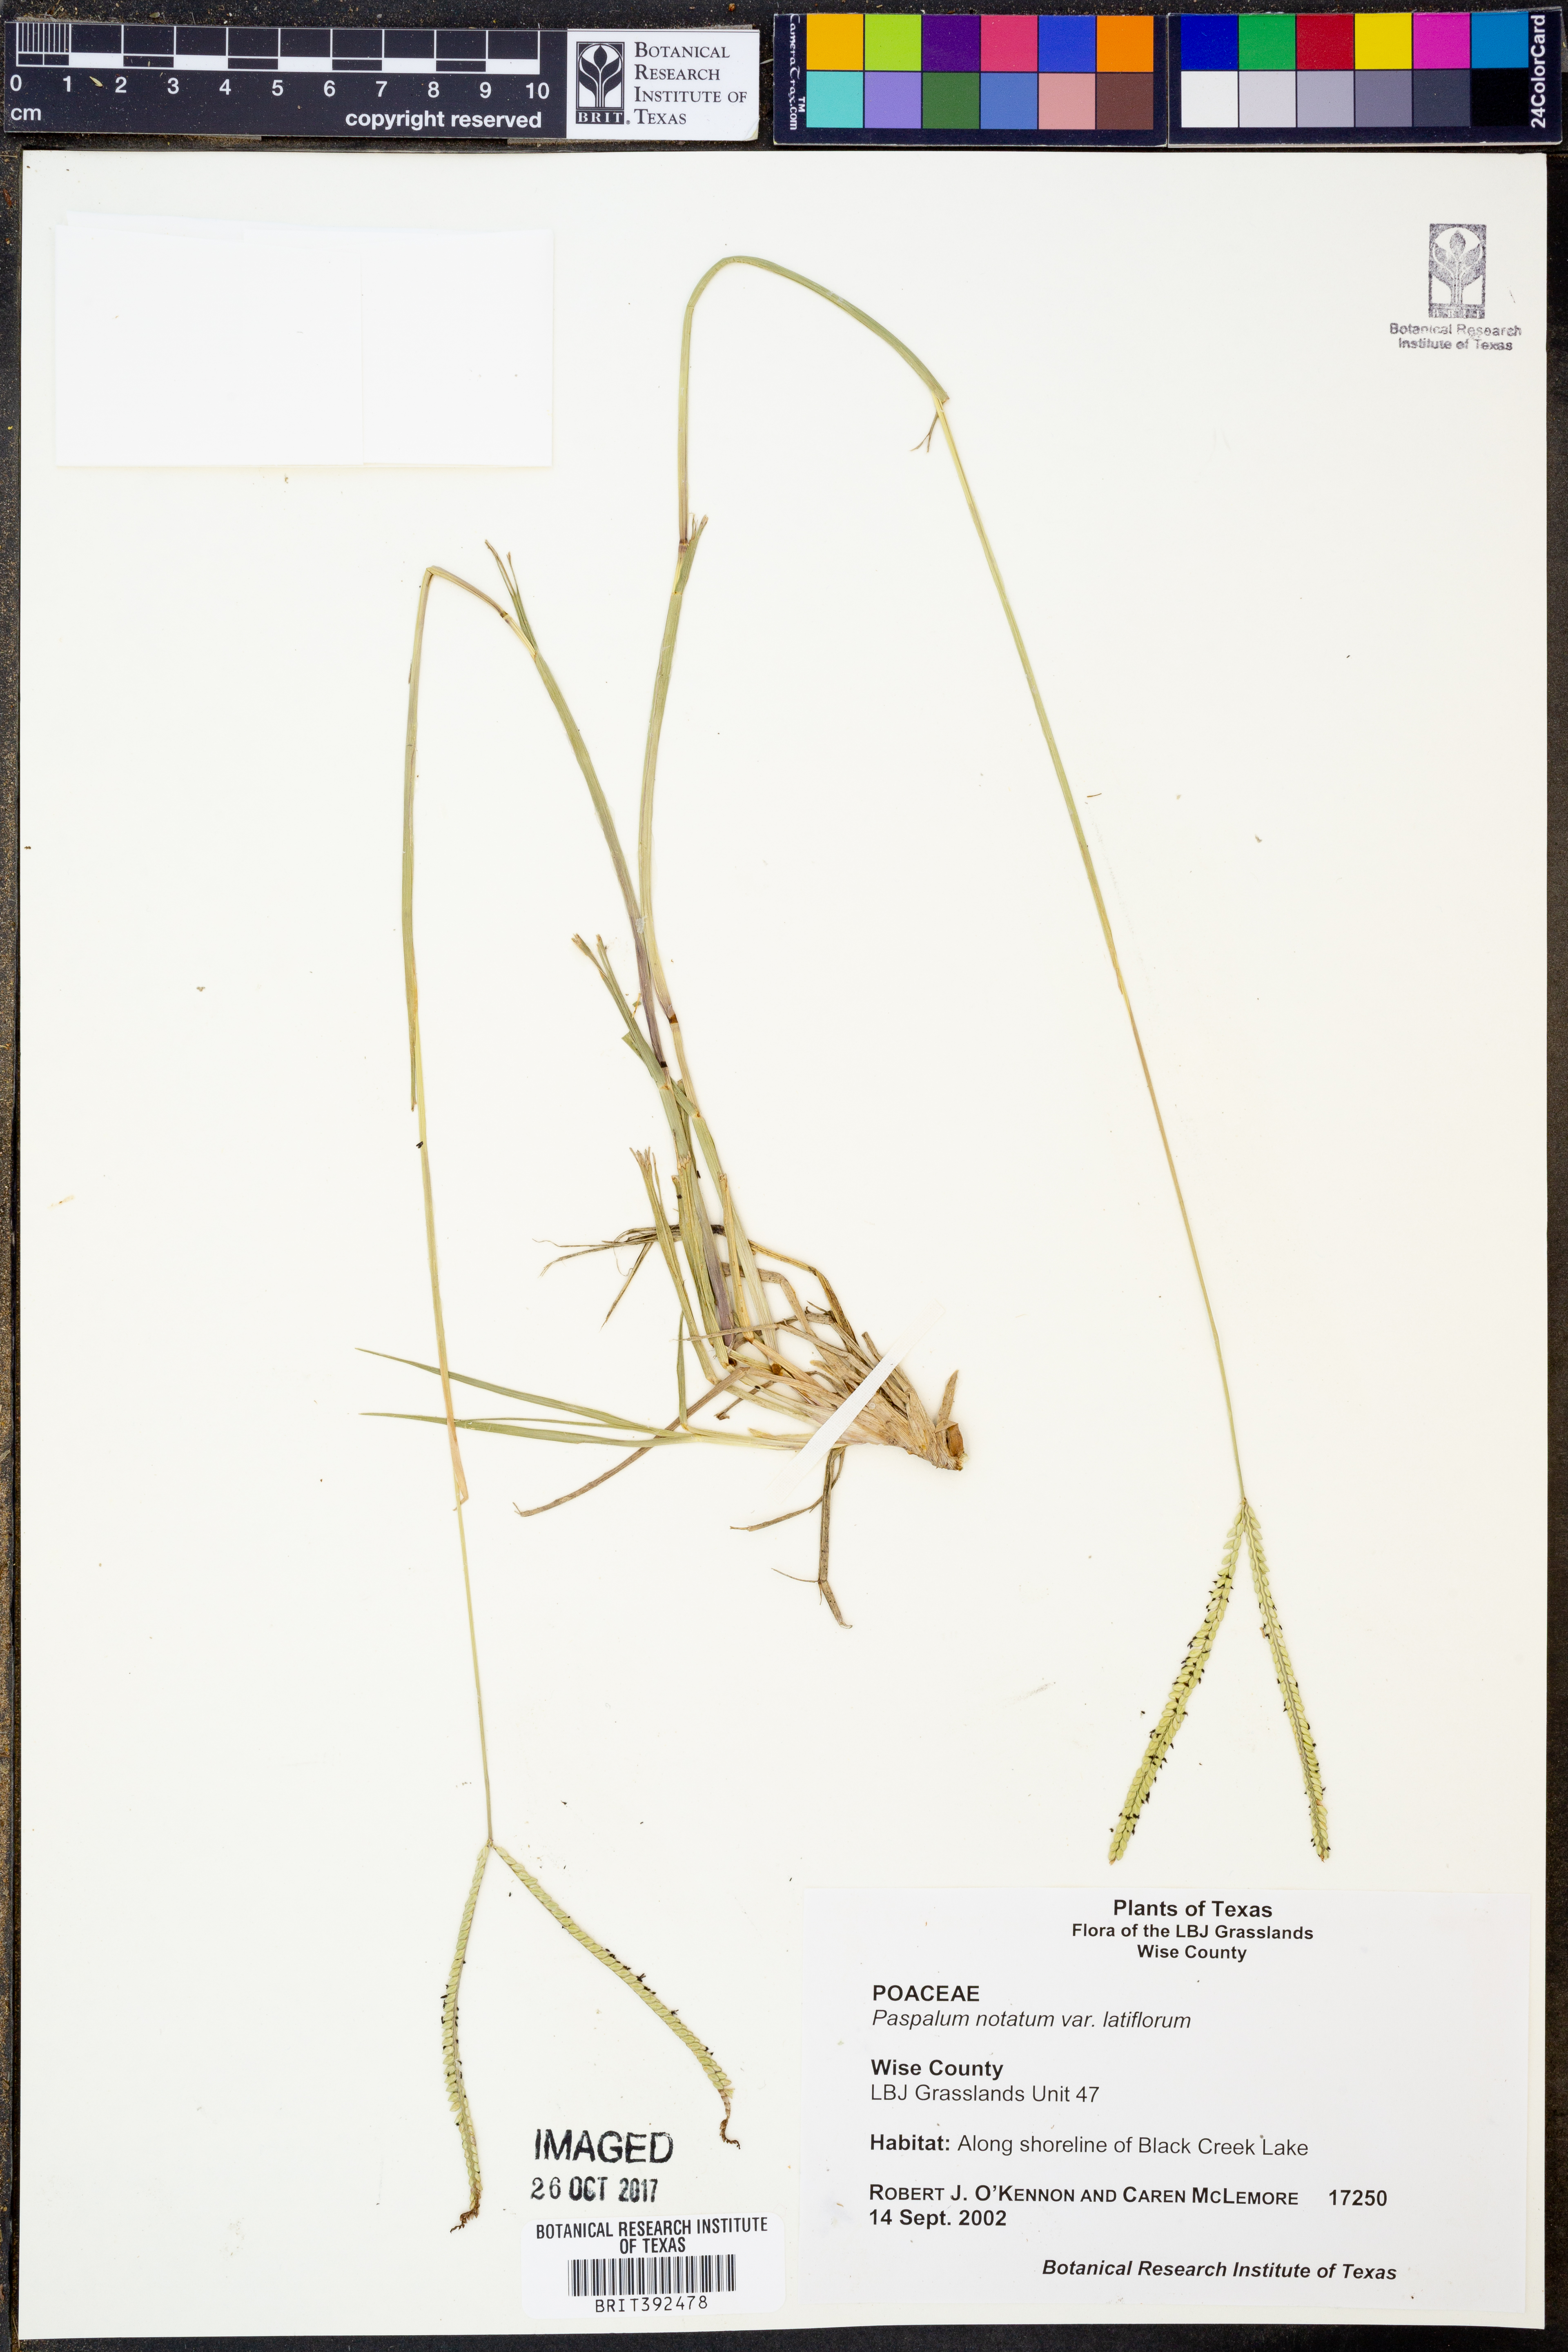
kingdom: Plantae
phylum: Tracheophyta
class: Liliopsida
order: Poales
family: Poaceae
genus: Paspalum
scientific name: Paspalum notatum
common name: Bahiagrass
